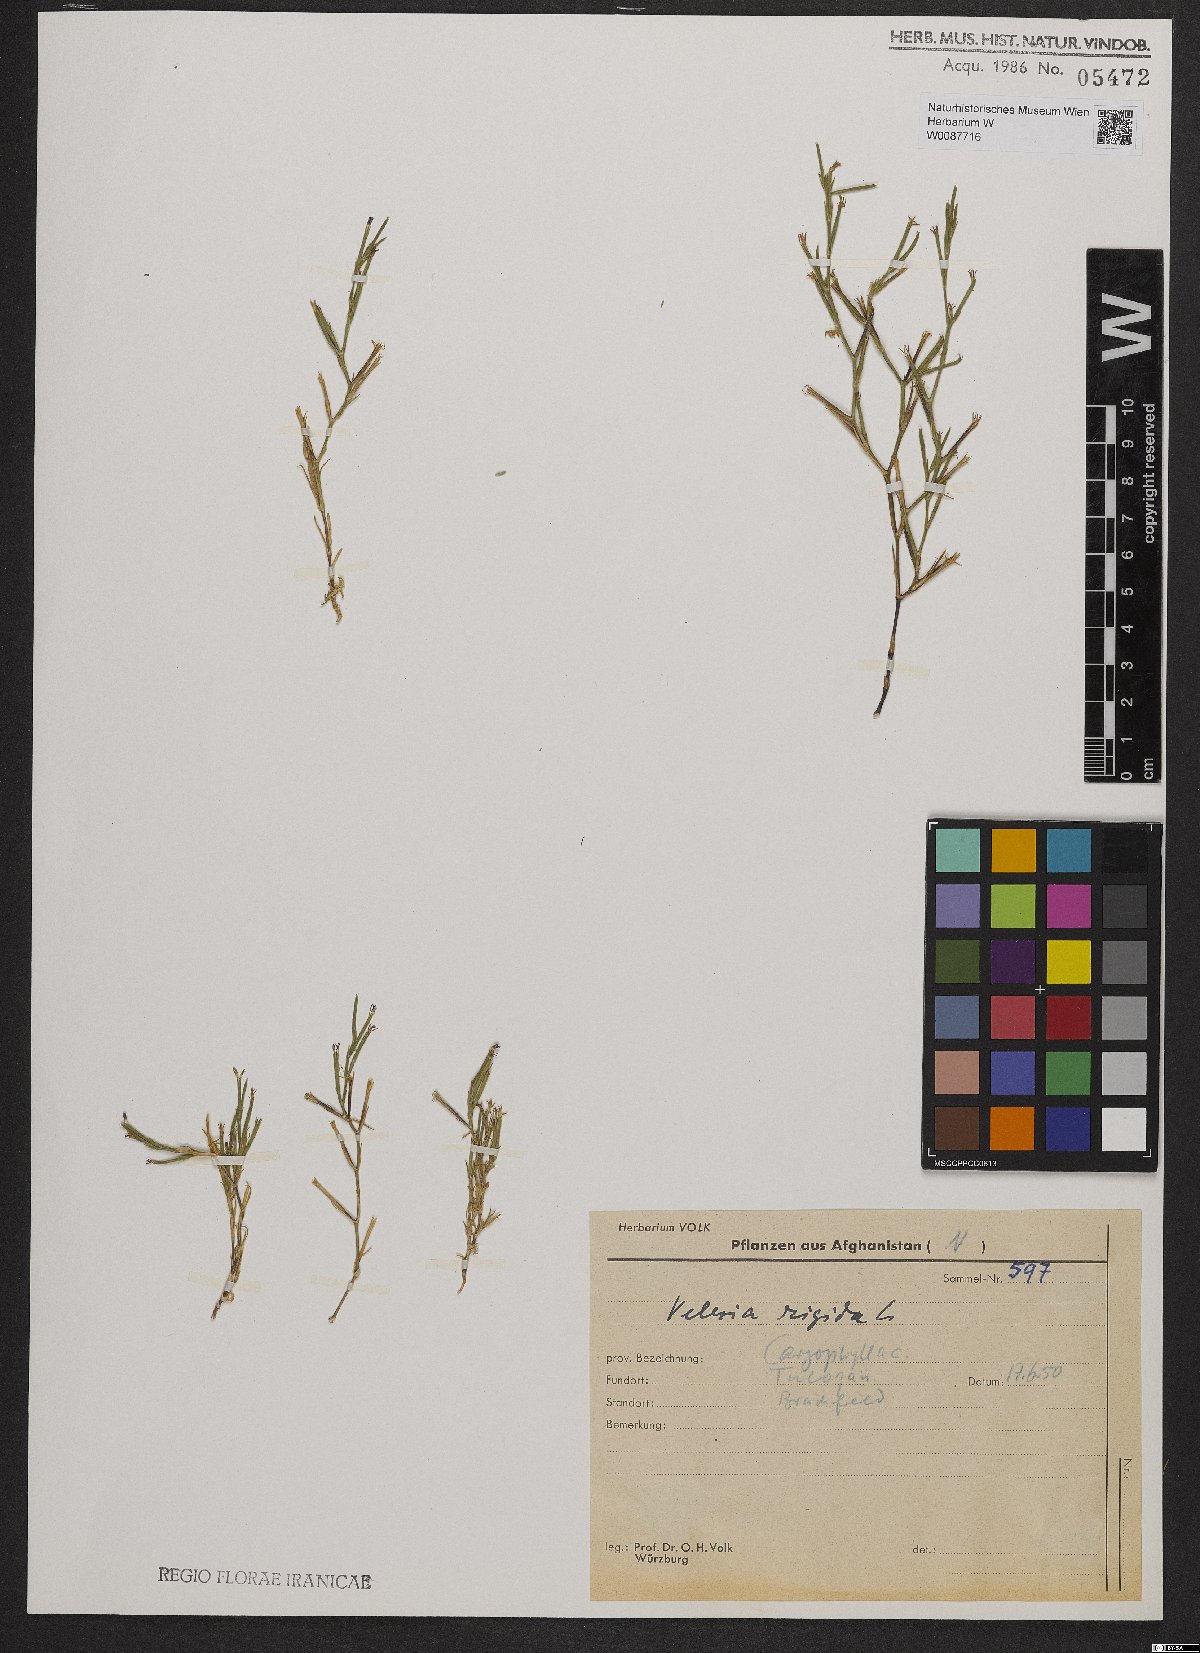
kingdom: Plantae
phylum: Tracheophyta
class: Magnoliopsida
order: Caryophyllales
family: Caryophyllaceae
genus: Dianthus
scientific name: Dianthus nudiflorus
